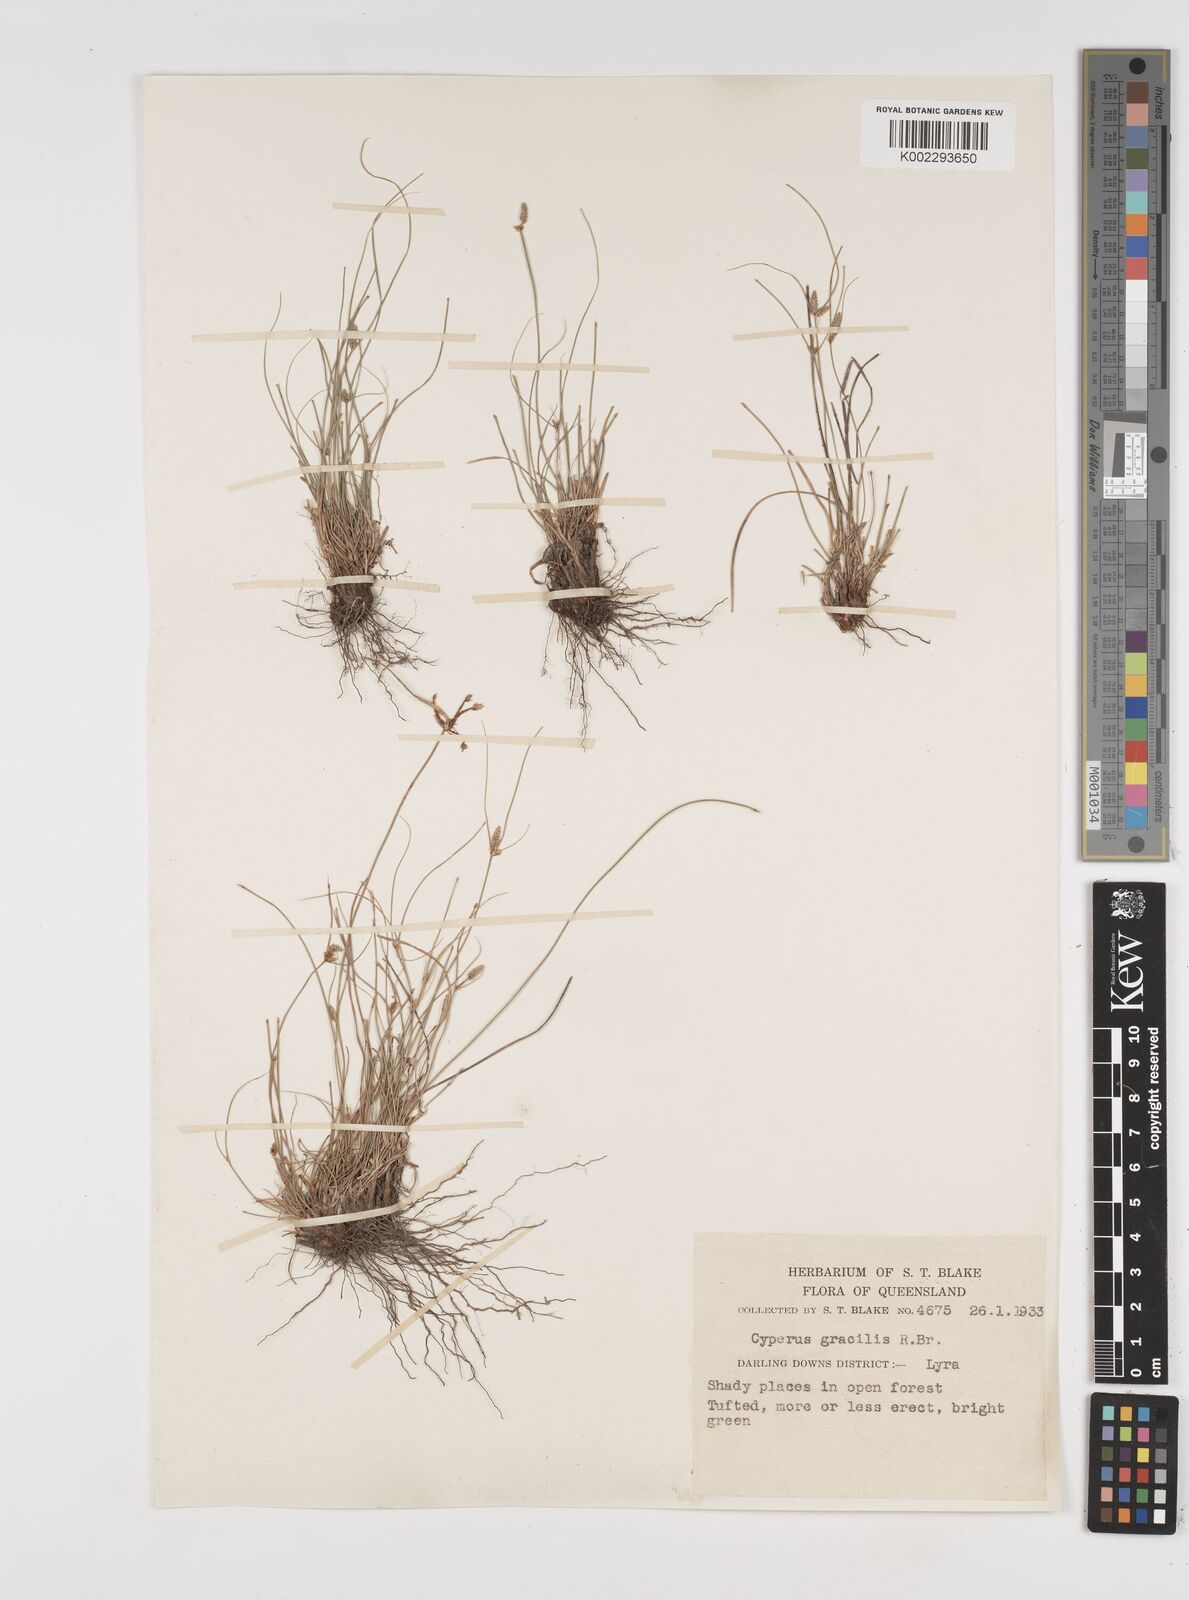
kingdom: Plantae
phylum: Tracheophyta
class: Liliopsida
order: Poales
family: Cyperaceae
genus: Cyperus
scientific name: Cyperus gracilis
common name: Slimjim flatsedge
